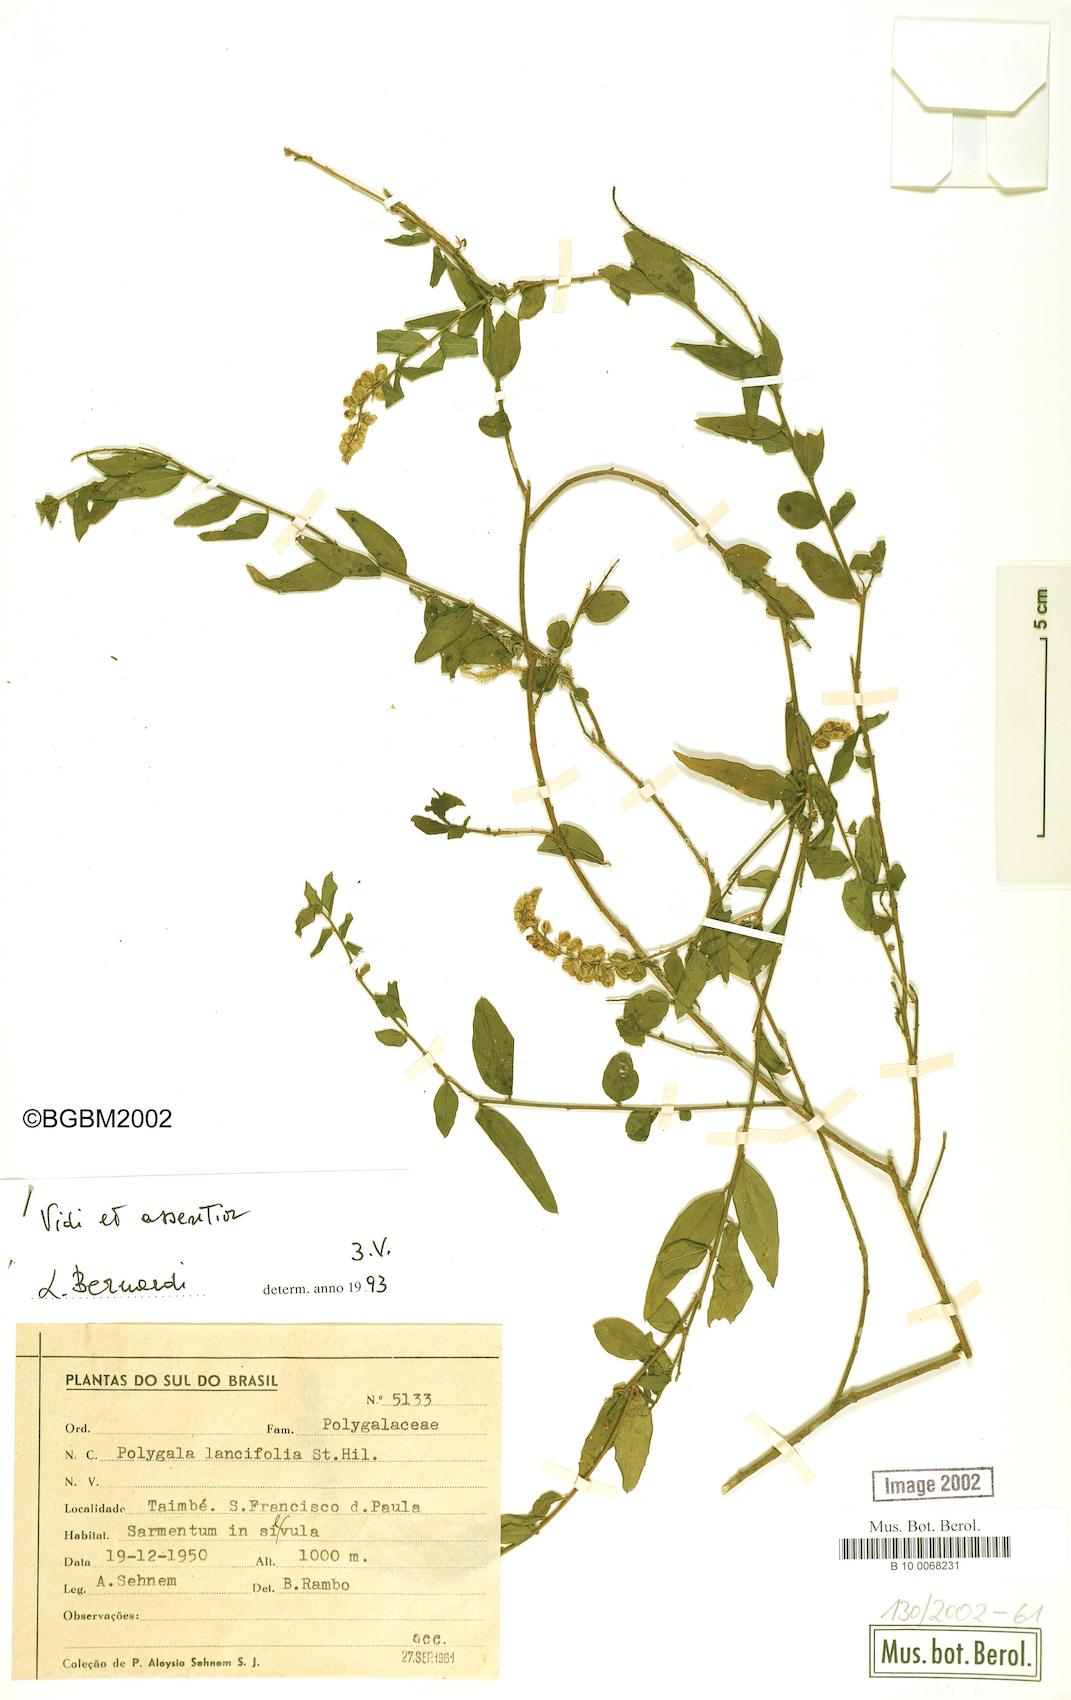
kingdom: Plantae
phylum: Tracheophyta
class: Magnoliopsida
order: Fabales
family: Polygalaceae
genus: Polygala
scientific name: Polygala lancifolia
